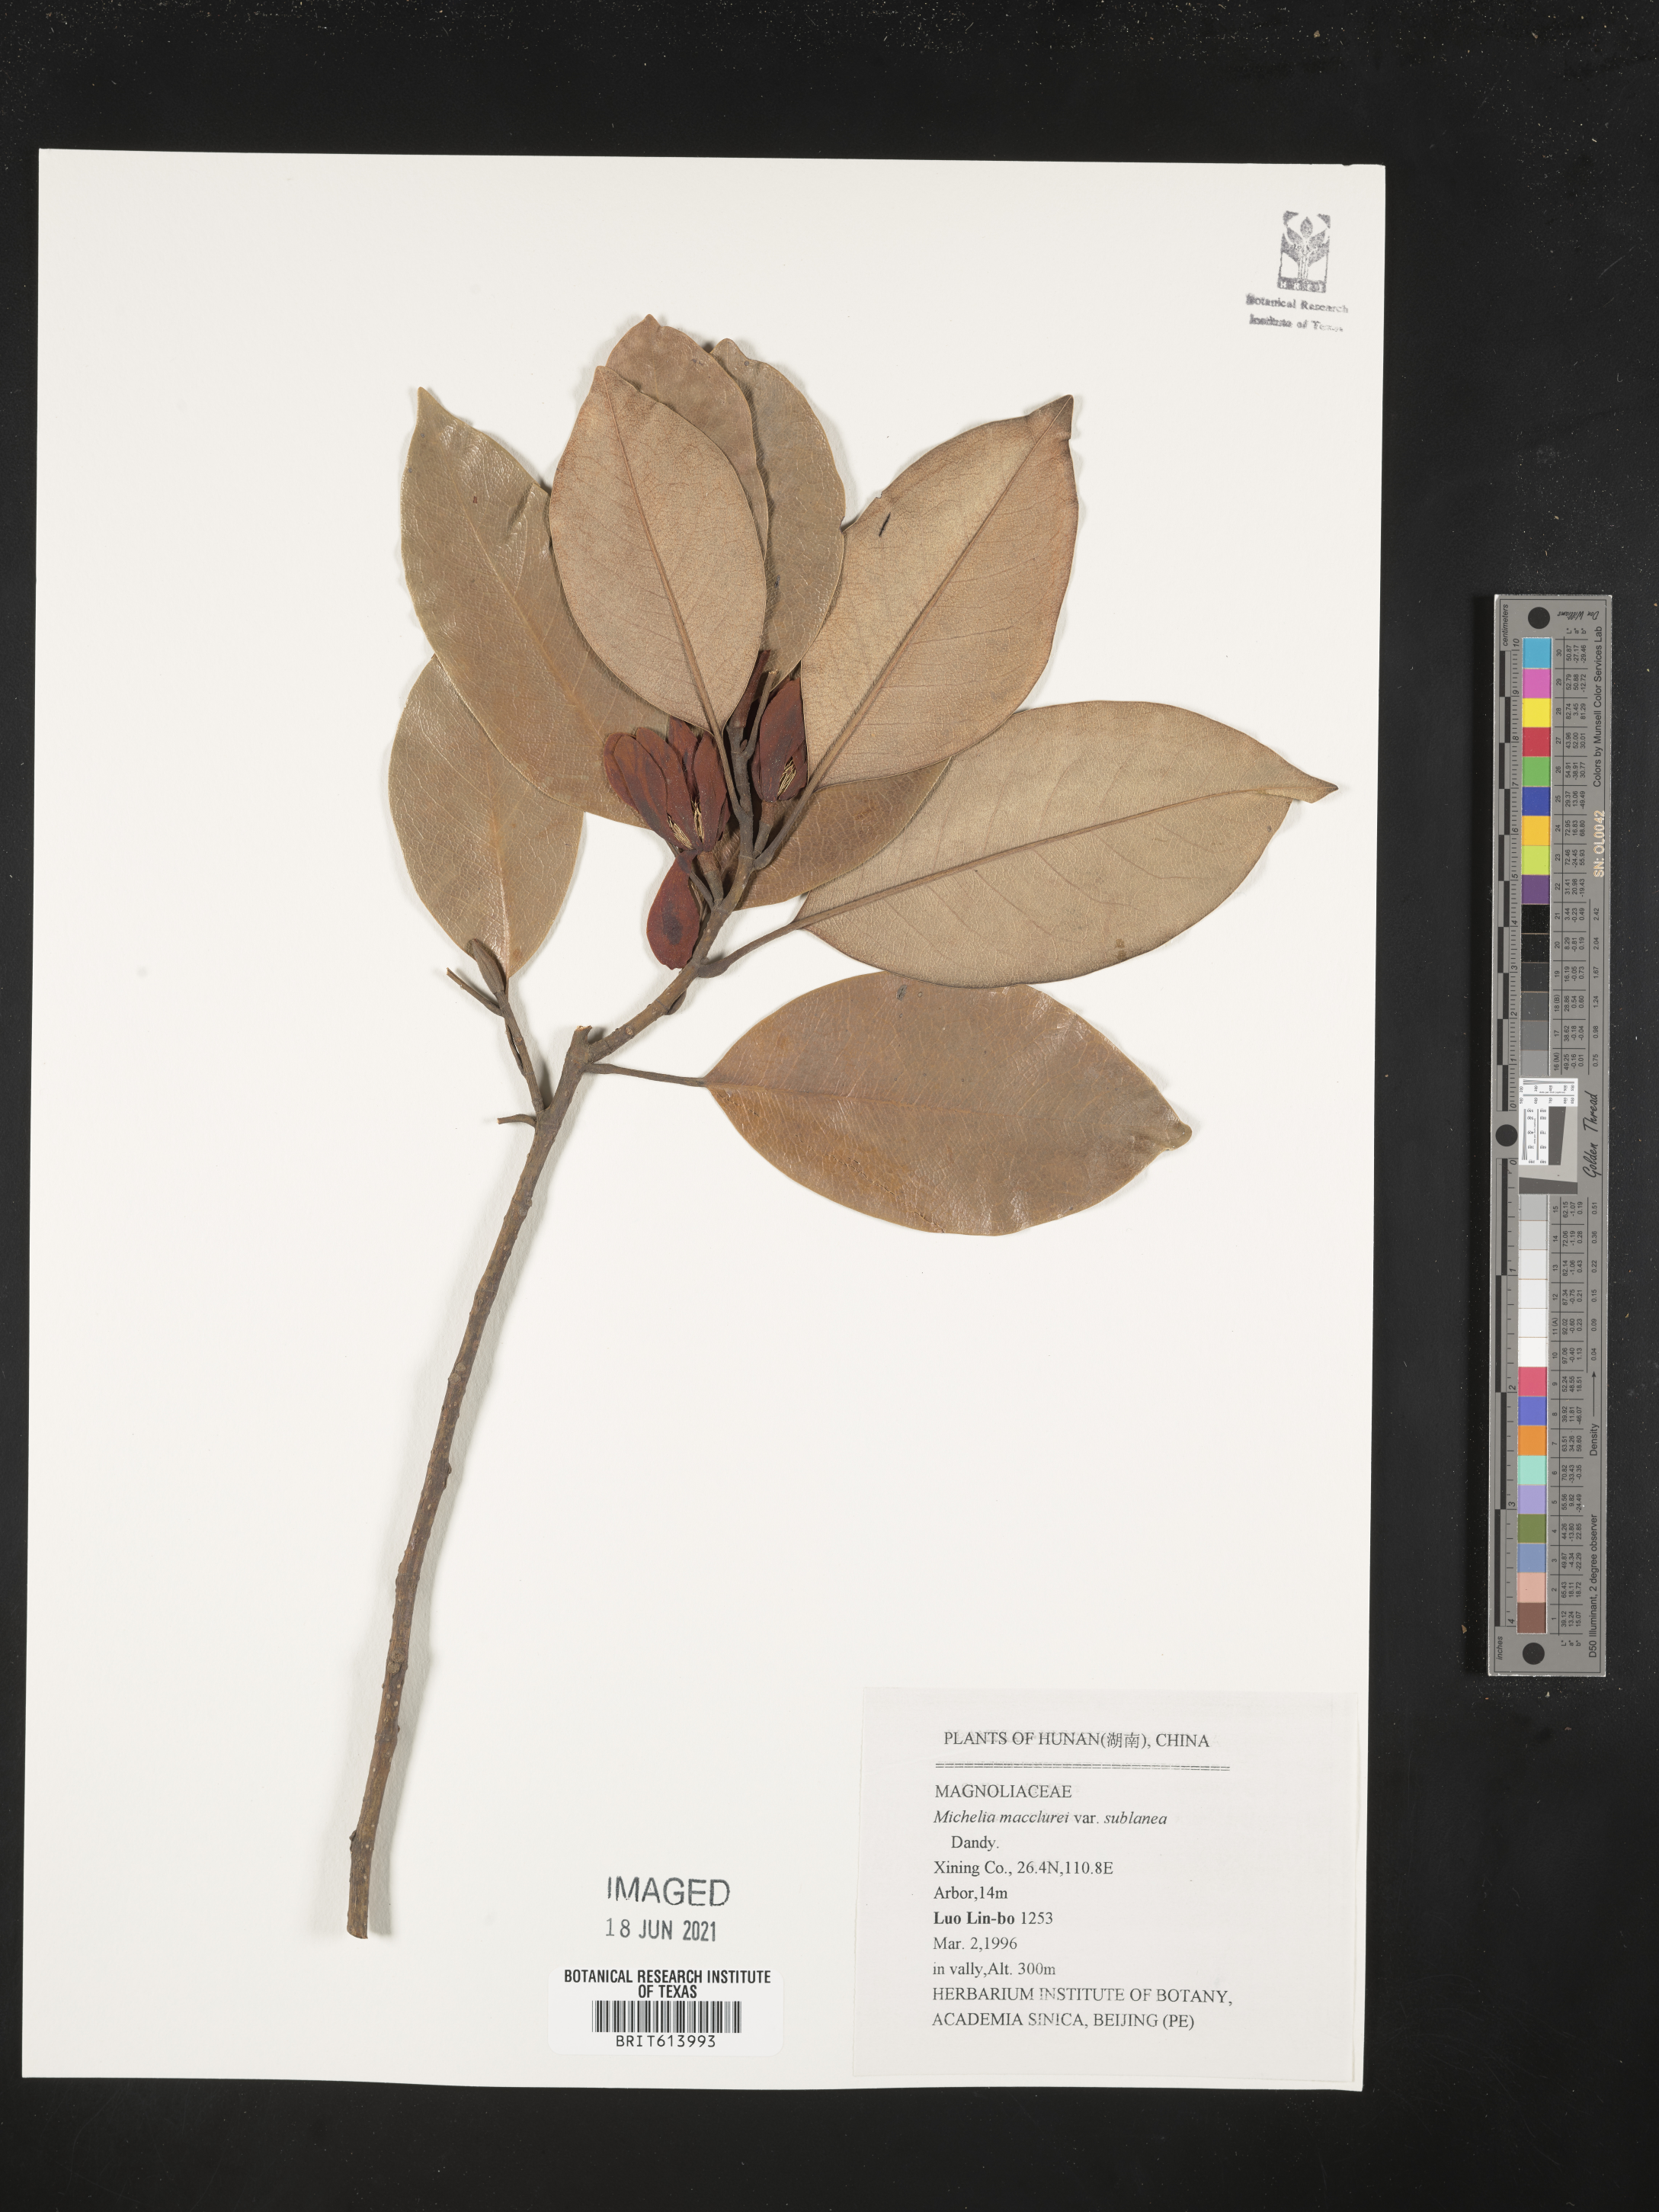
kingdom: Plantae
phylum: Tracheophyta
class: Magnoliopsida
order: Magnoliales
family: Magnoliaceae
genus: Magnolia
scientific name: Magnolia macclurei
